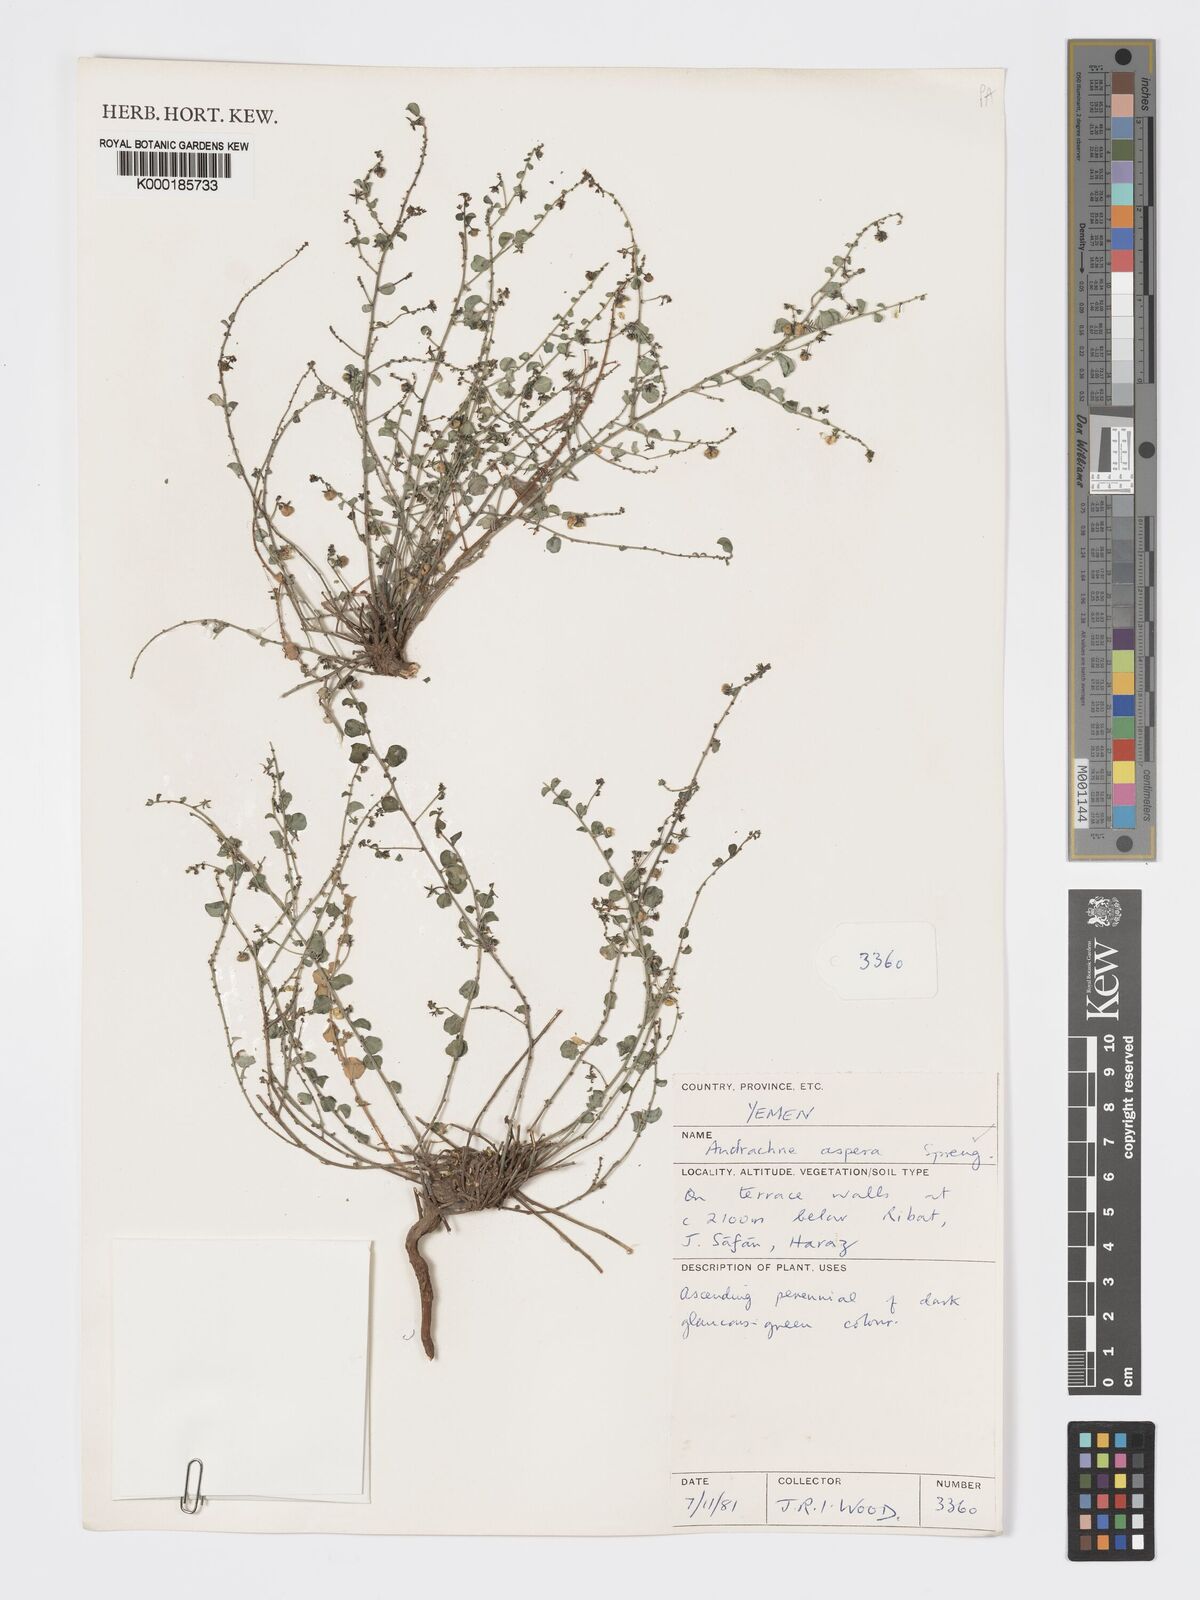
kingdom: Plantae
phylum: Tracheophyta
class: Magnoliopsida
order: Malpighiales
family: Phyllanthaceae
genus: Andrachne
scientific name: Andrachne aspera
